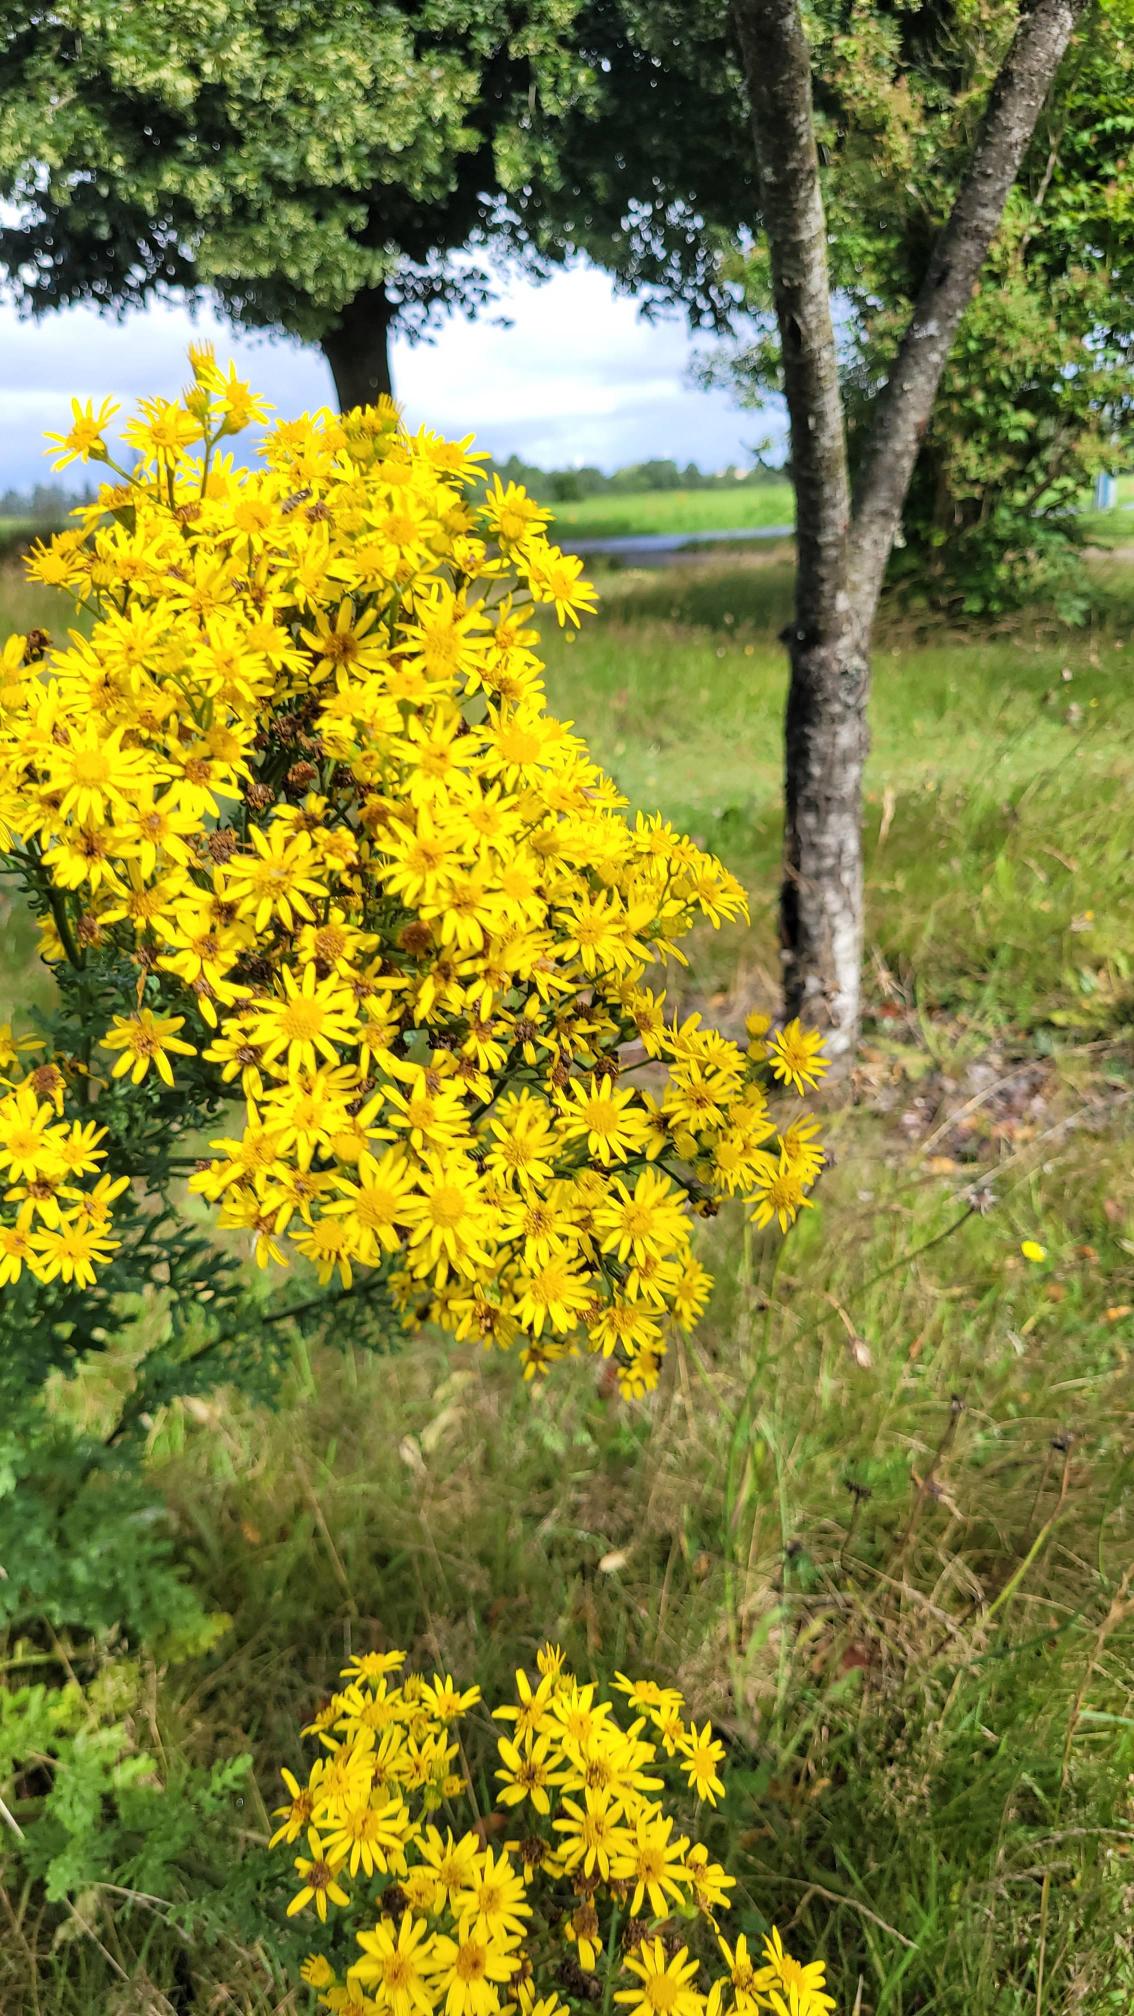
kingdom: Plantae
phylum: Tracheophyta
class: Magnoliopsida
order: Asterales
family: Asteraceae
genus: Jacobaea
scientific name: Jacobaea vulgaris
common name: Eng-brandbæger
